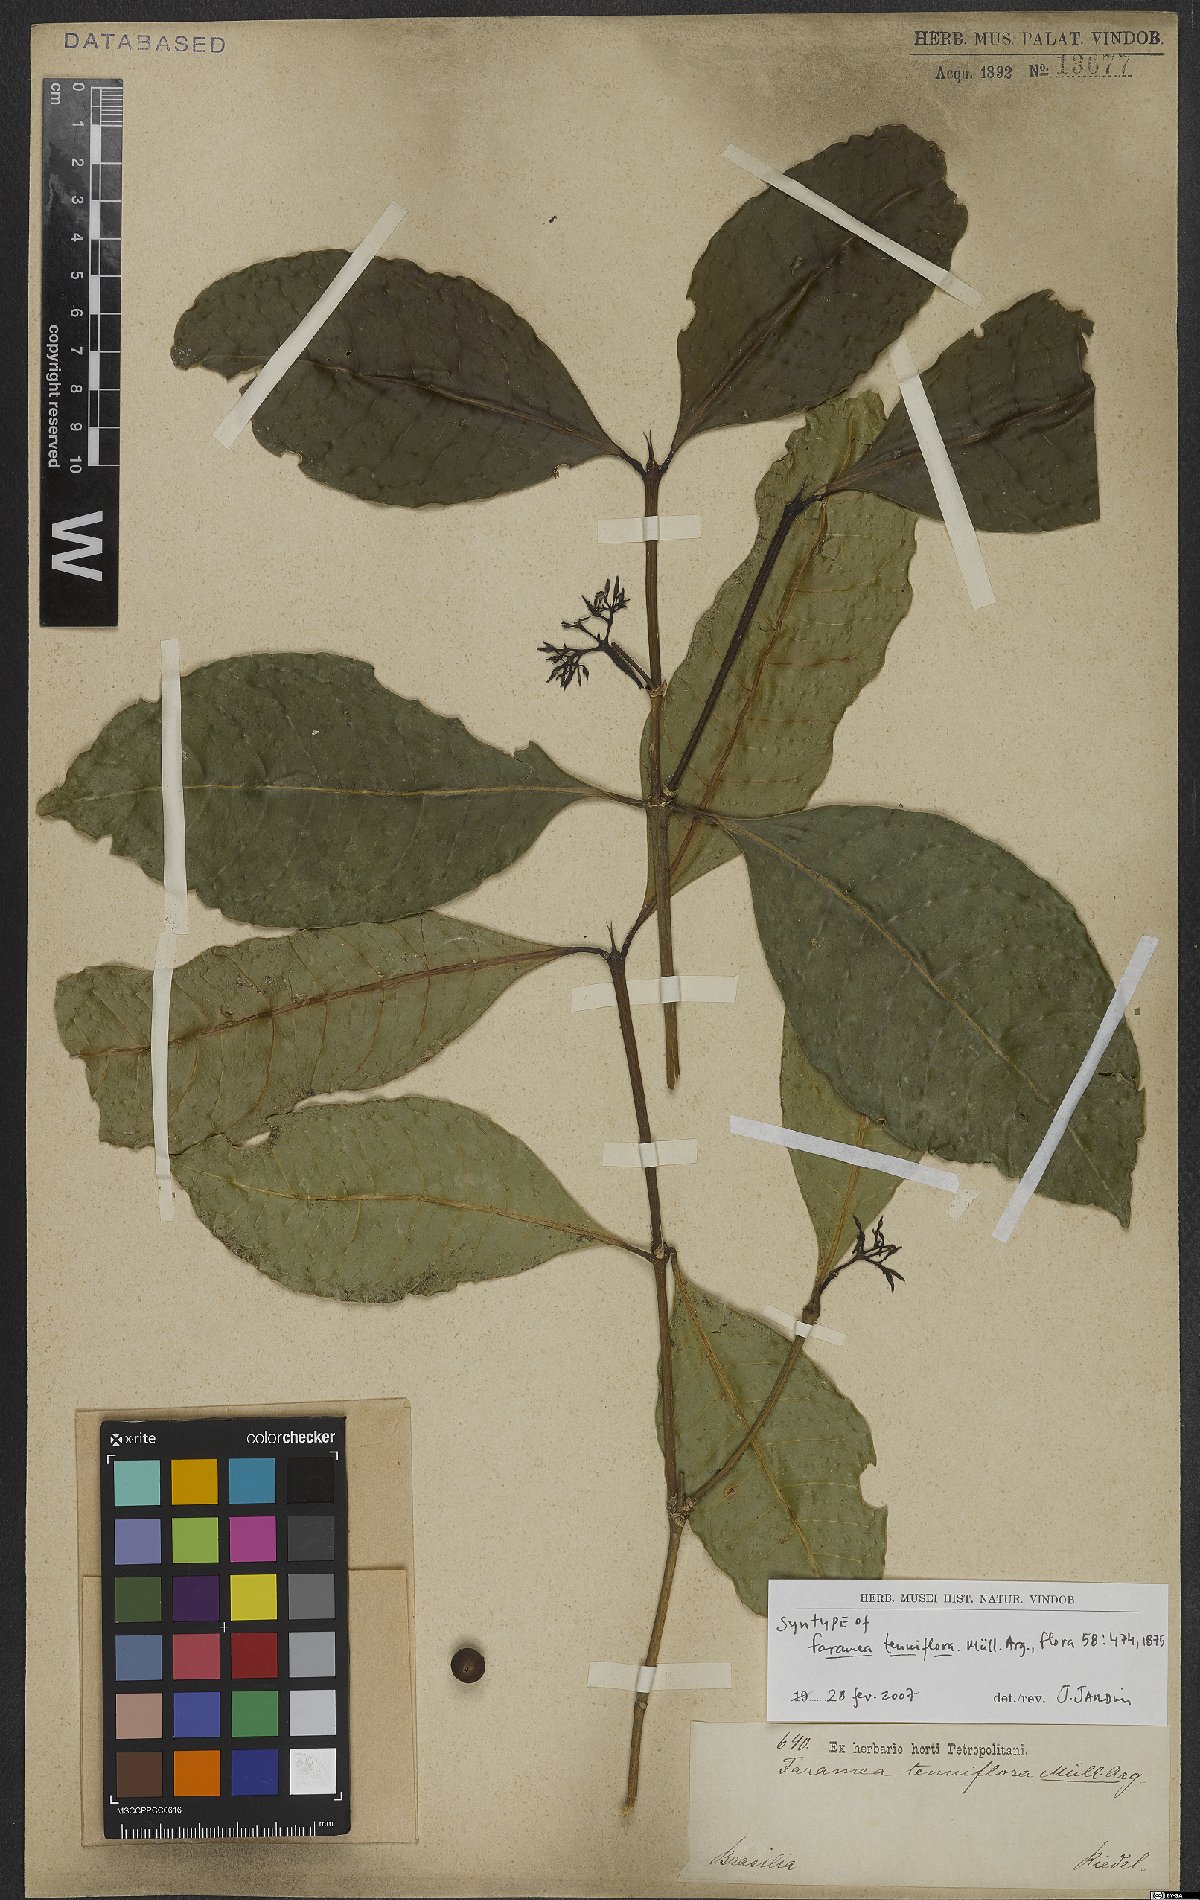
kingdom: Plantae
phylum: Tracheophyta
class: Magnoliopsida
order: Gentianales
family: Rubiaceae
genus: Faramea
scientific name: Faramea tenuiflora
